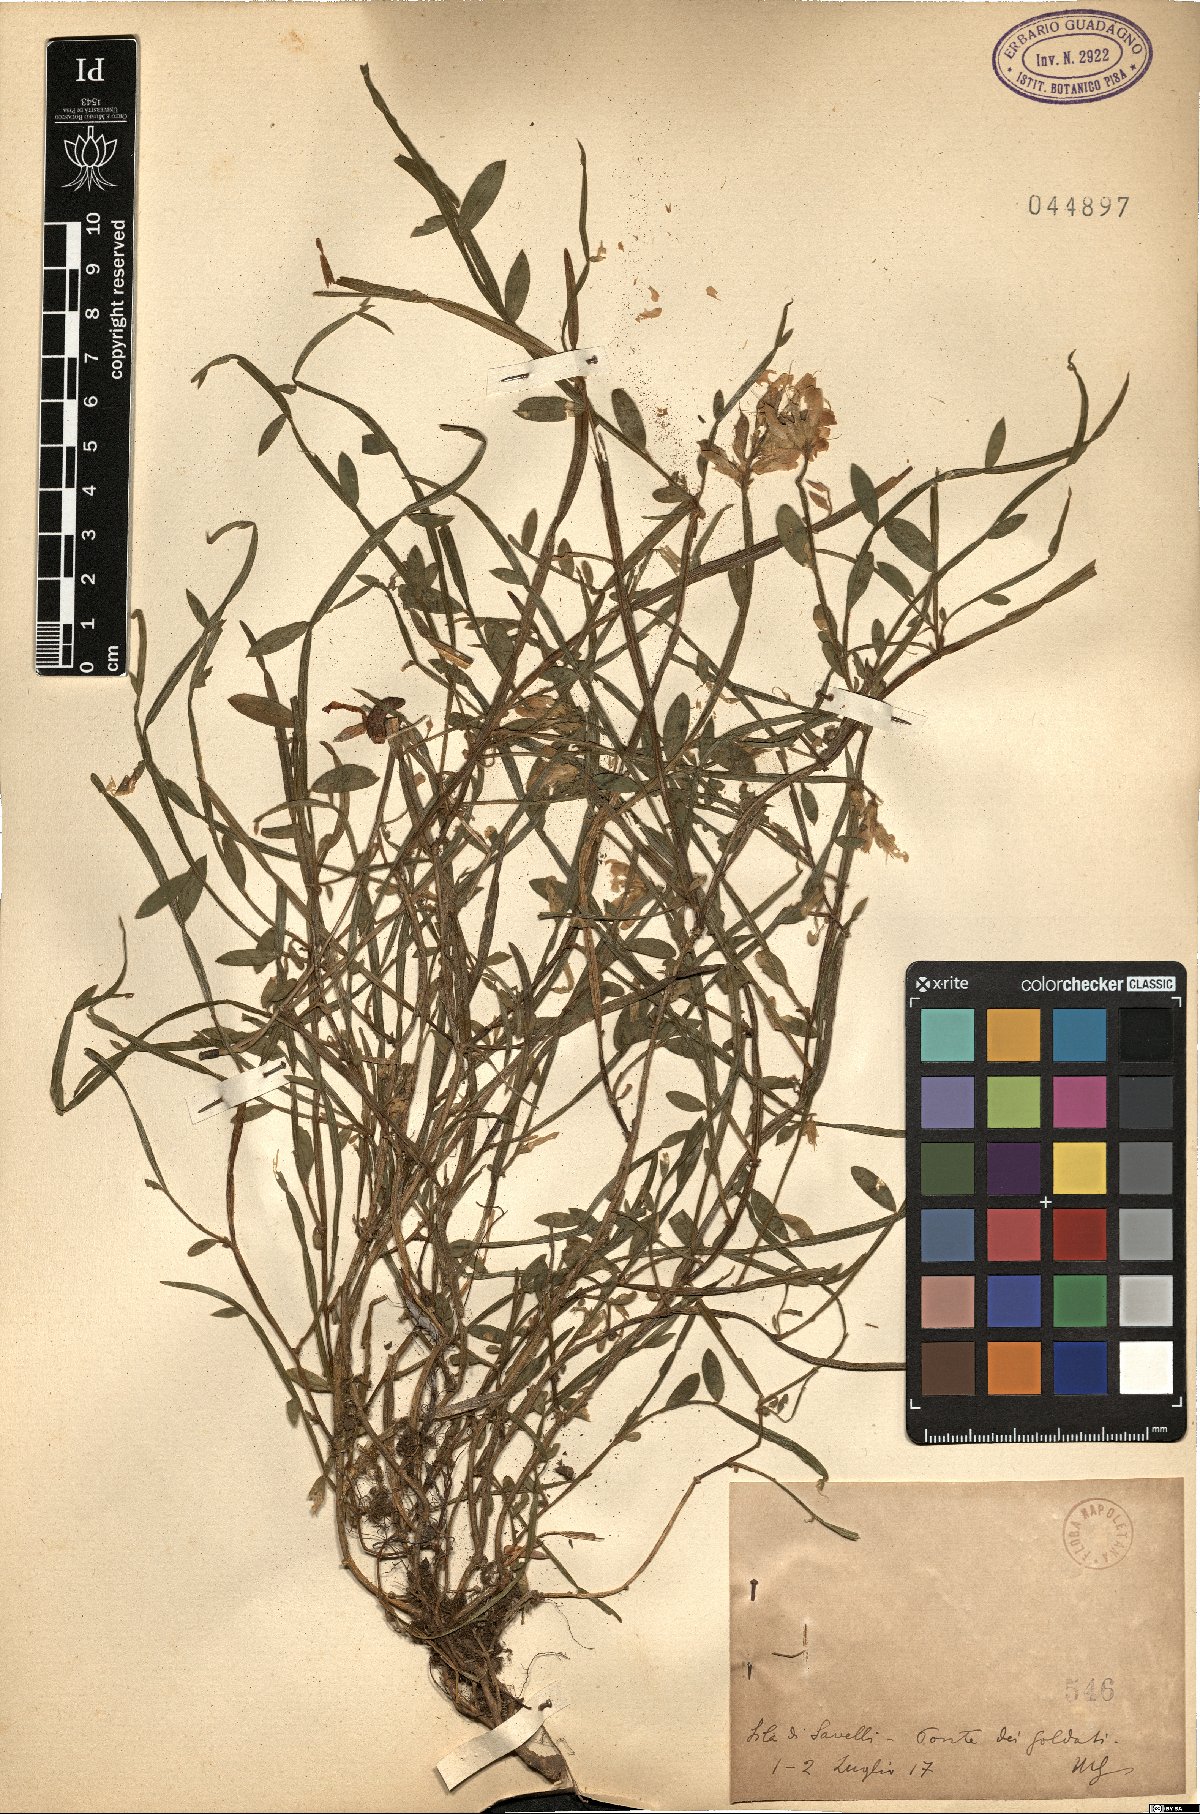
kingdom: Plantae
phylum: Tracheophyta
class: Magnoliopsida
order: Fabales
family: Fabaceae
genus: Genista
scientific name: Genista
